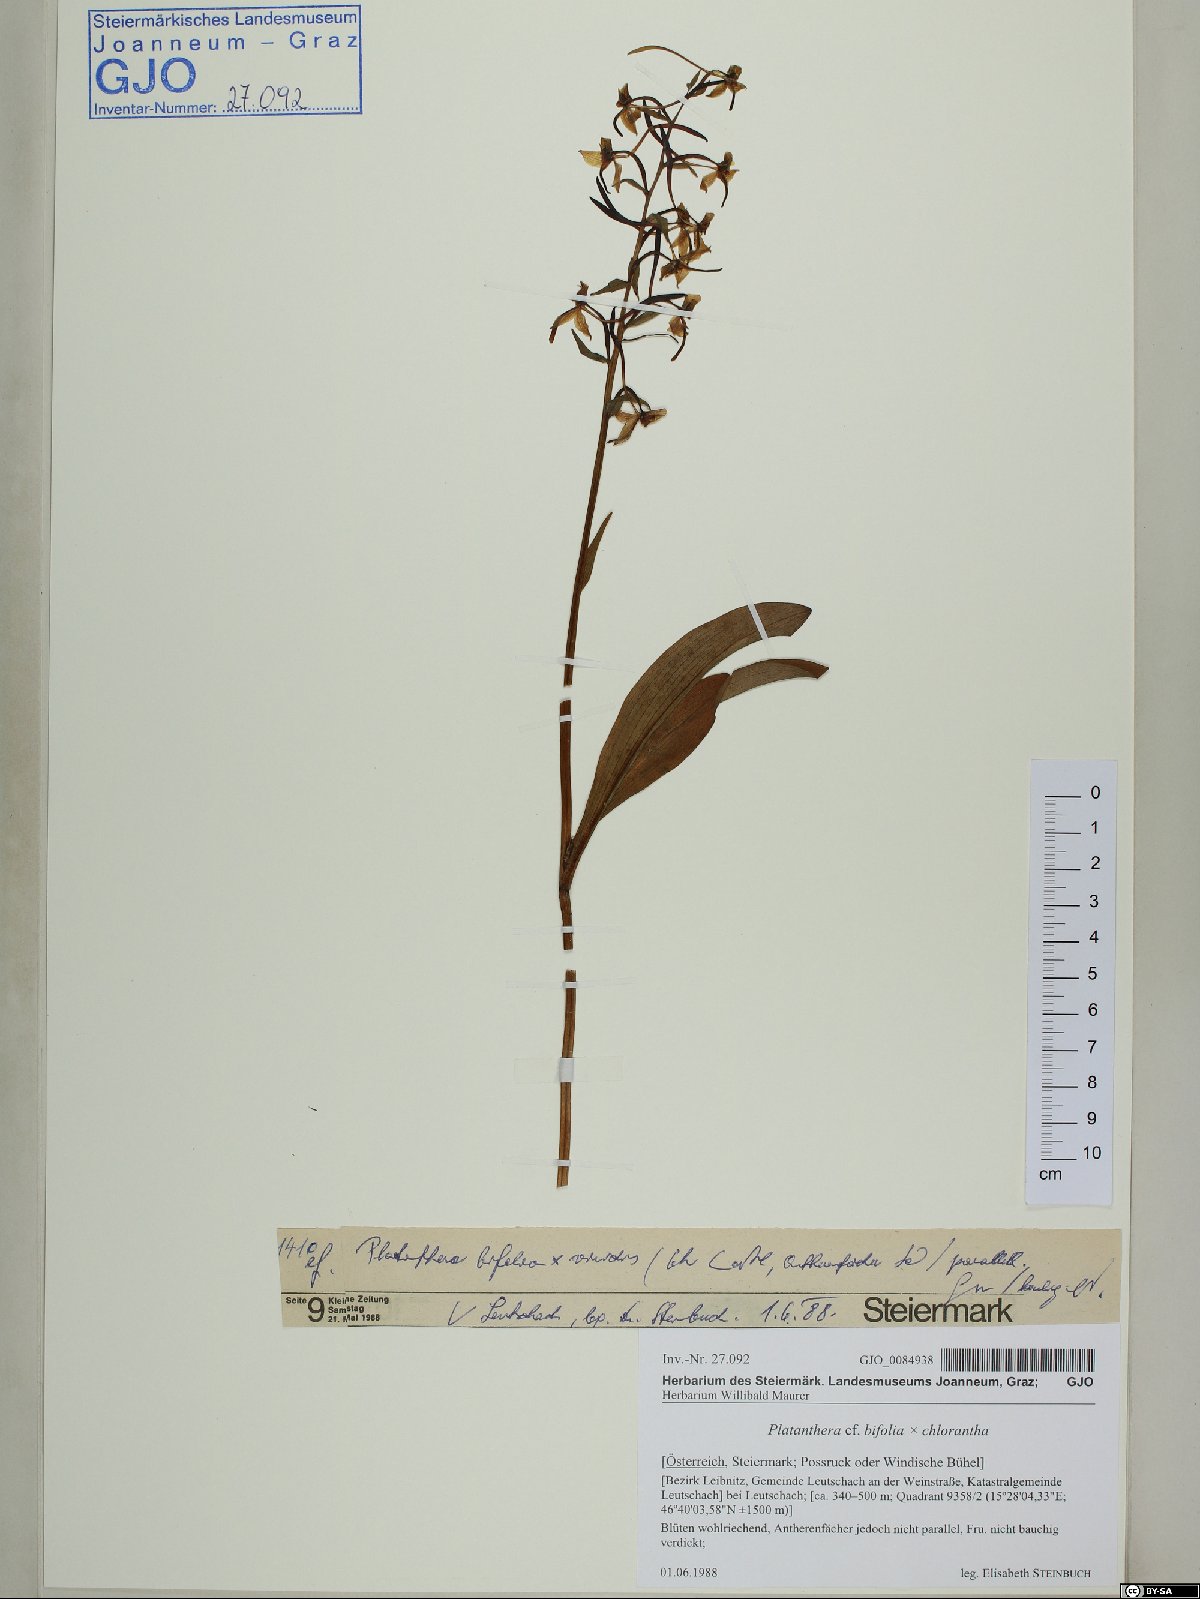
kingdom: Plantae
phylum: Tracheophyta
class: Liliopsida
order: Asparagales
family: Orchidaceae
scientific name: Orchidaceae
